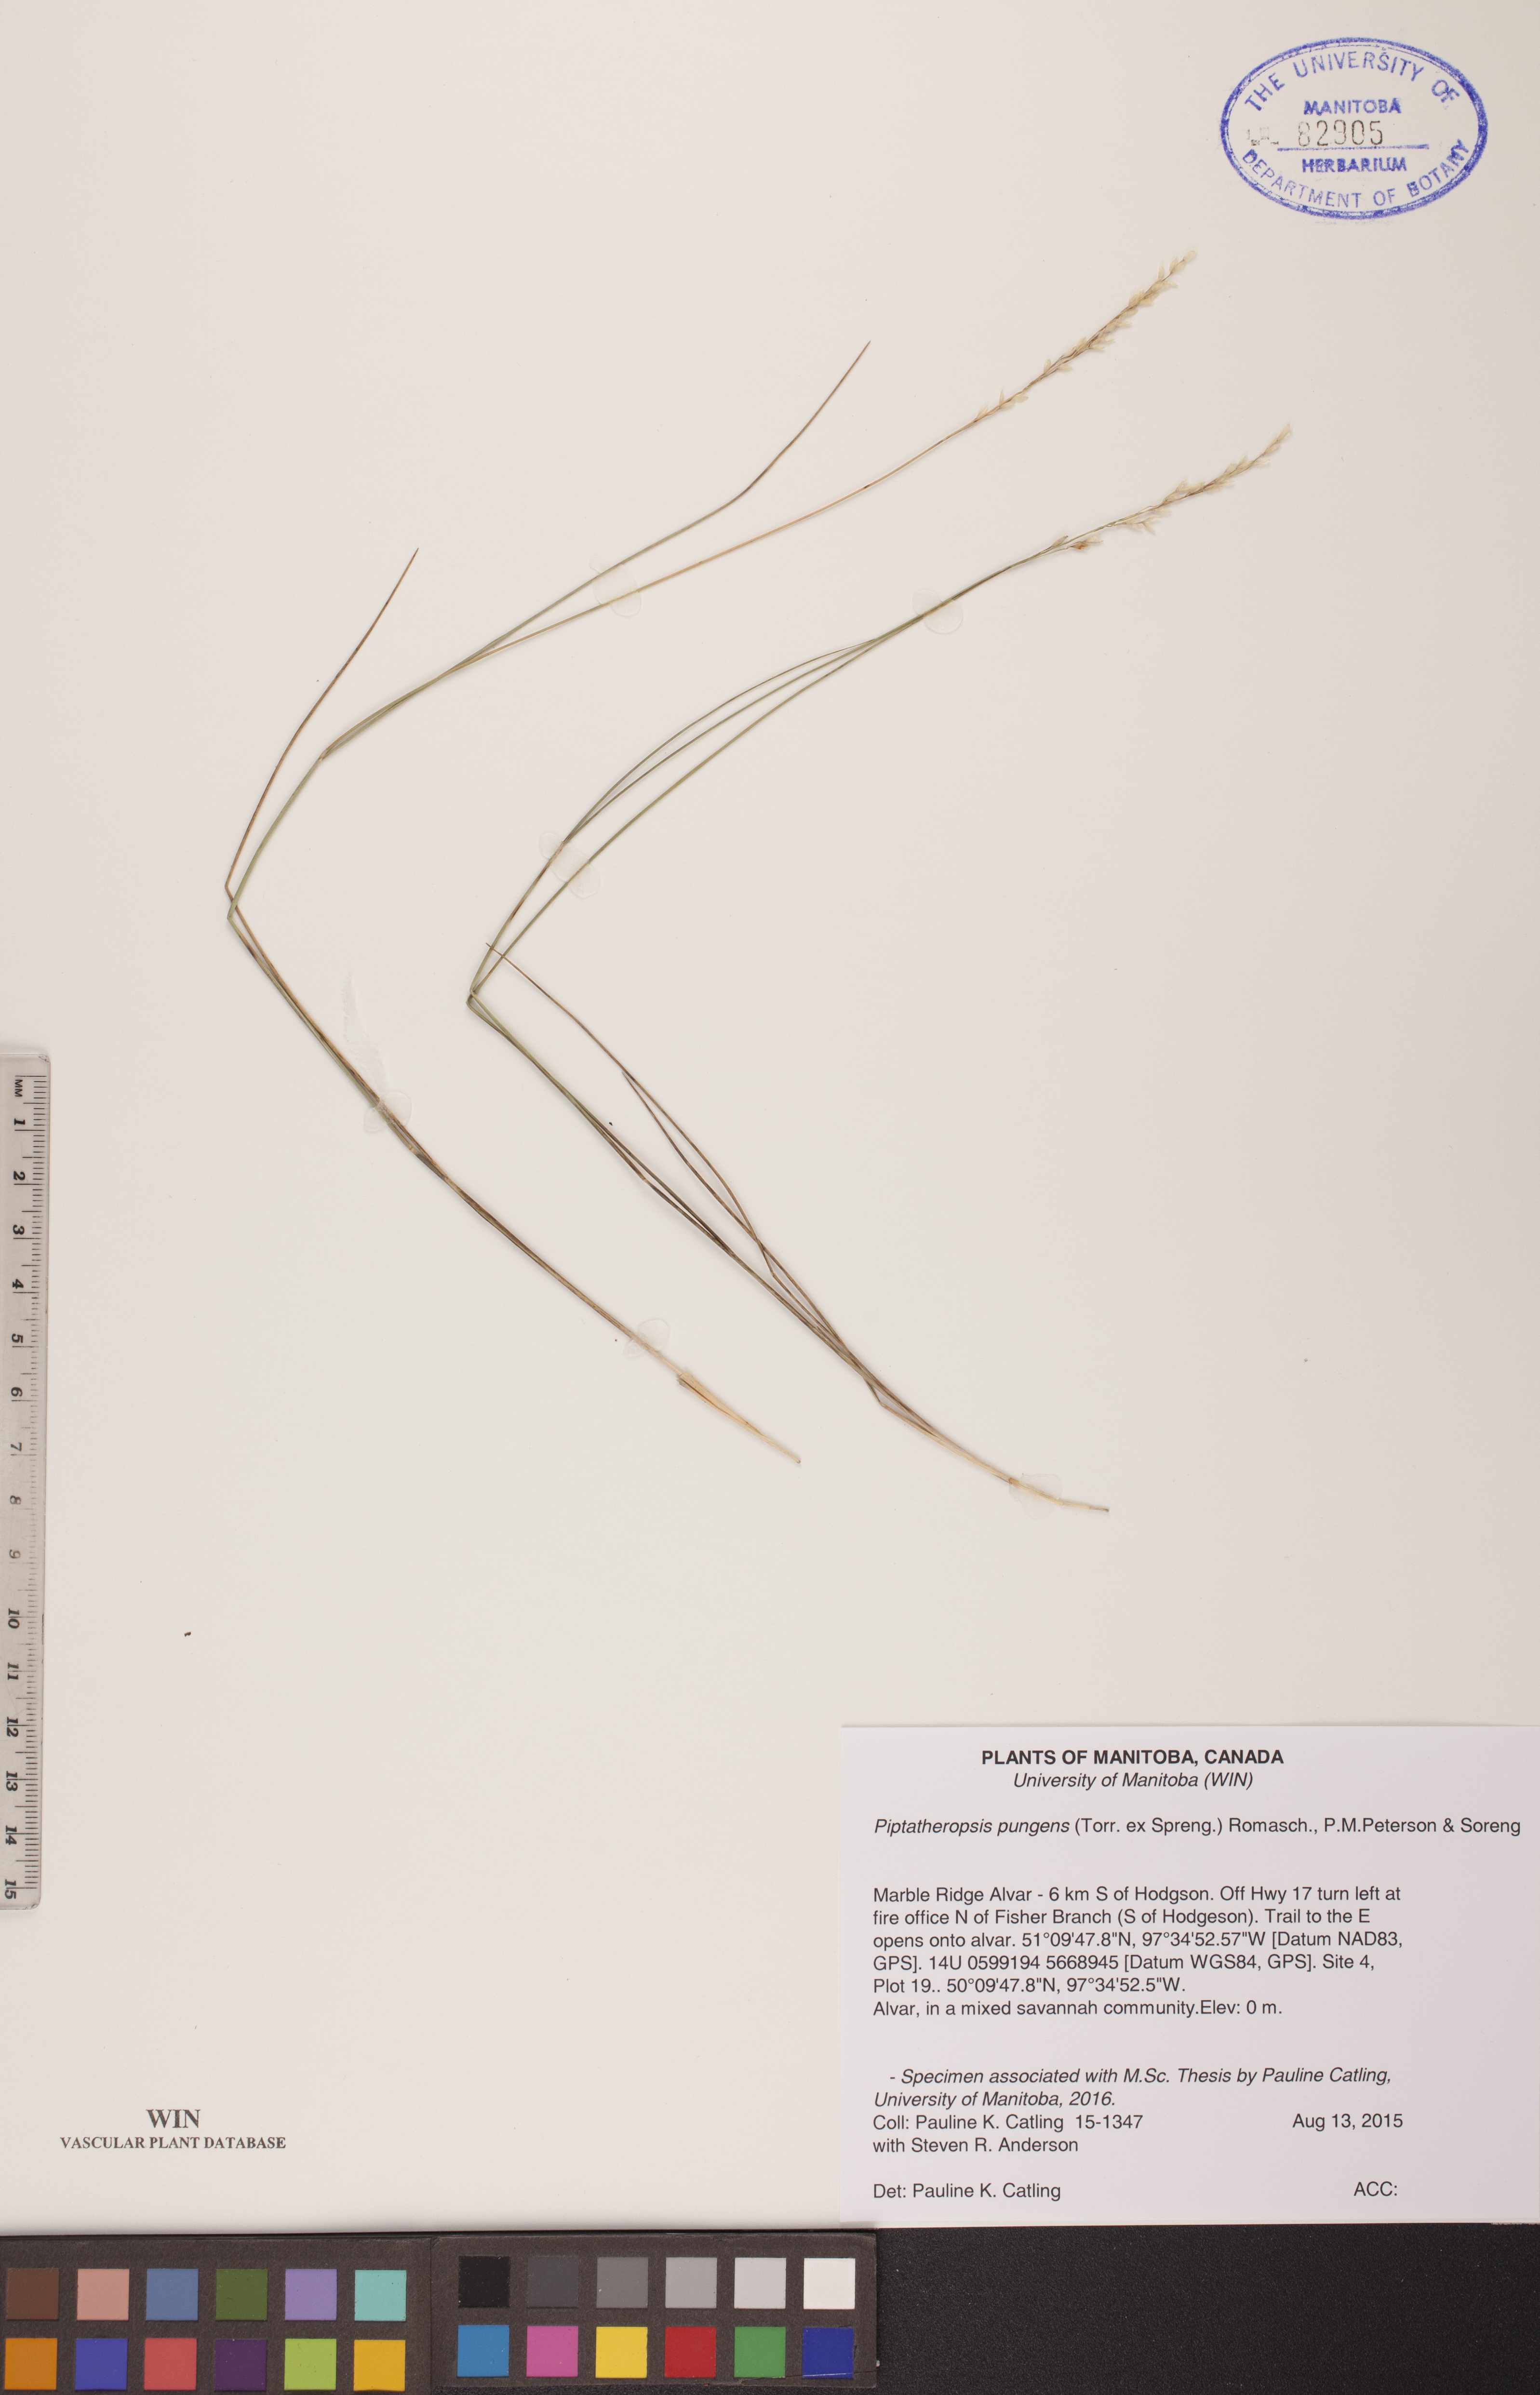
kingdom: Plantae
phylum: Tracheophyta
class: Liliopsida
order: Poales
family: Poaceae
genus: Piptatheropsis
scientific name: Piptatheropsis pungens
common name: Northern ricegrass
